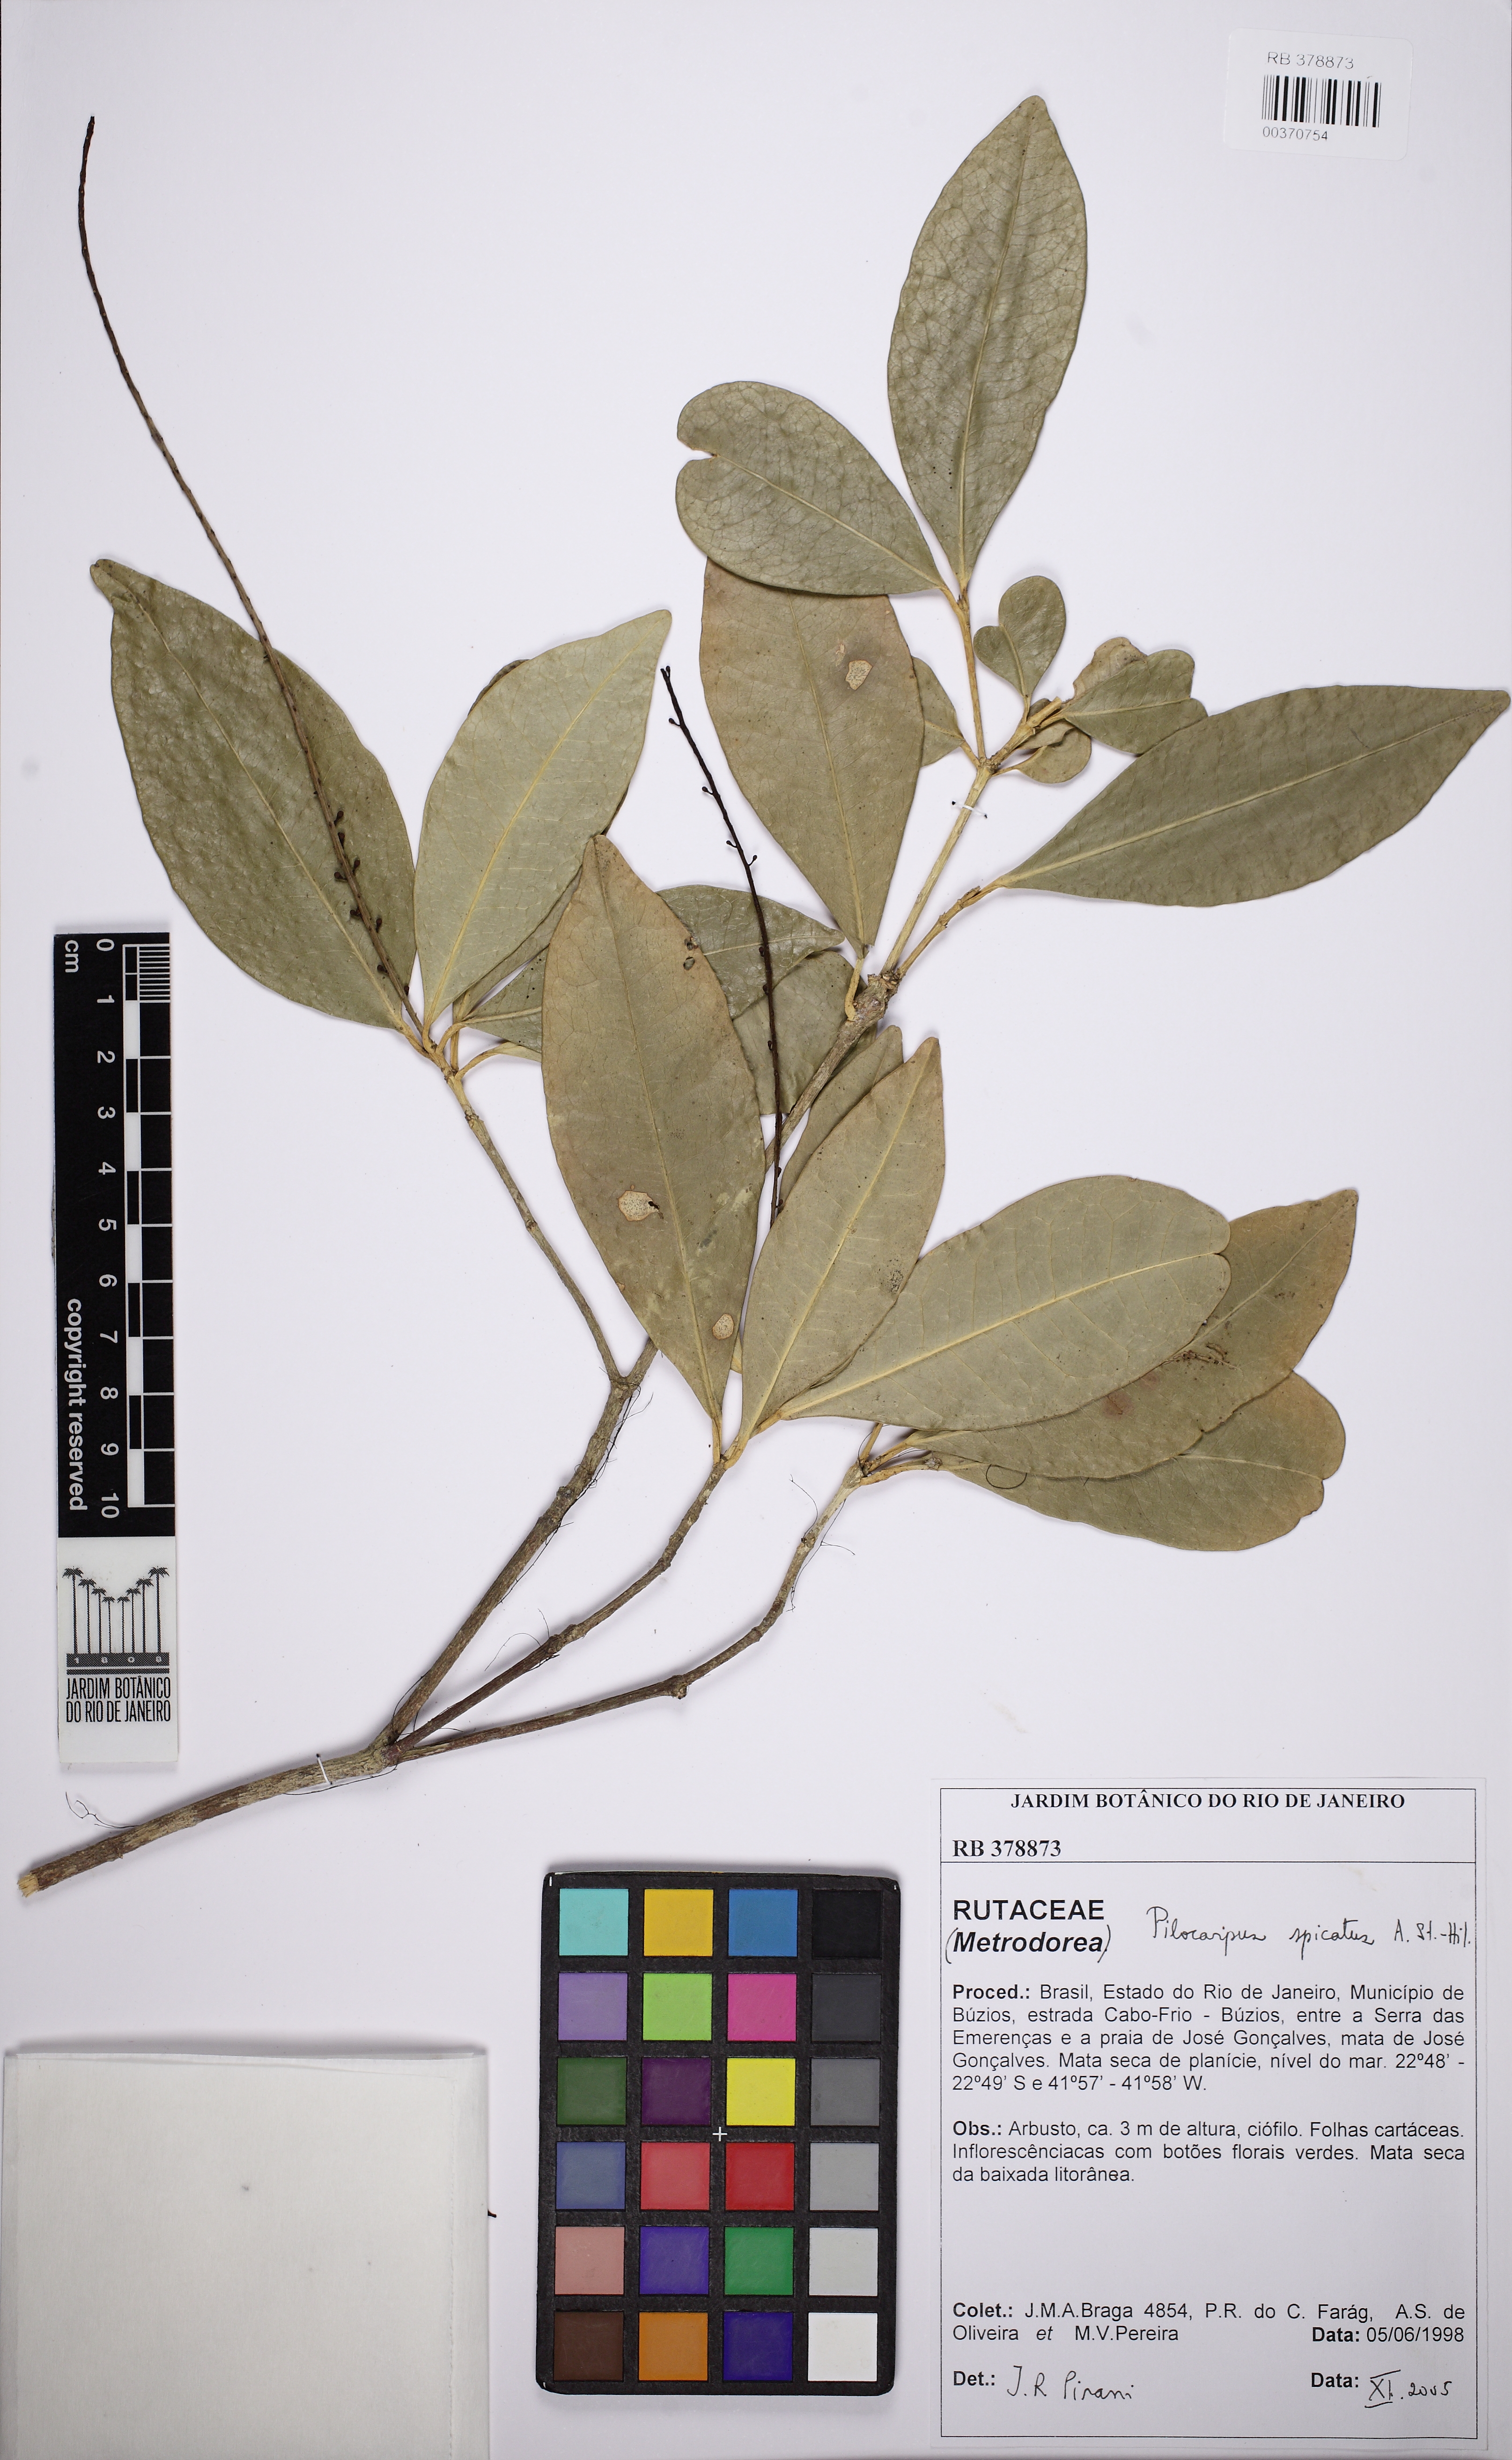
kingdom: Plantae
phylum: Tracheophyta
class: Magnoliopsida
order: Sapindales
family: Rutaceae
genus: Pilocarpus
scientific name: Pilocarpus spicatus
